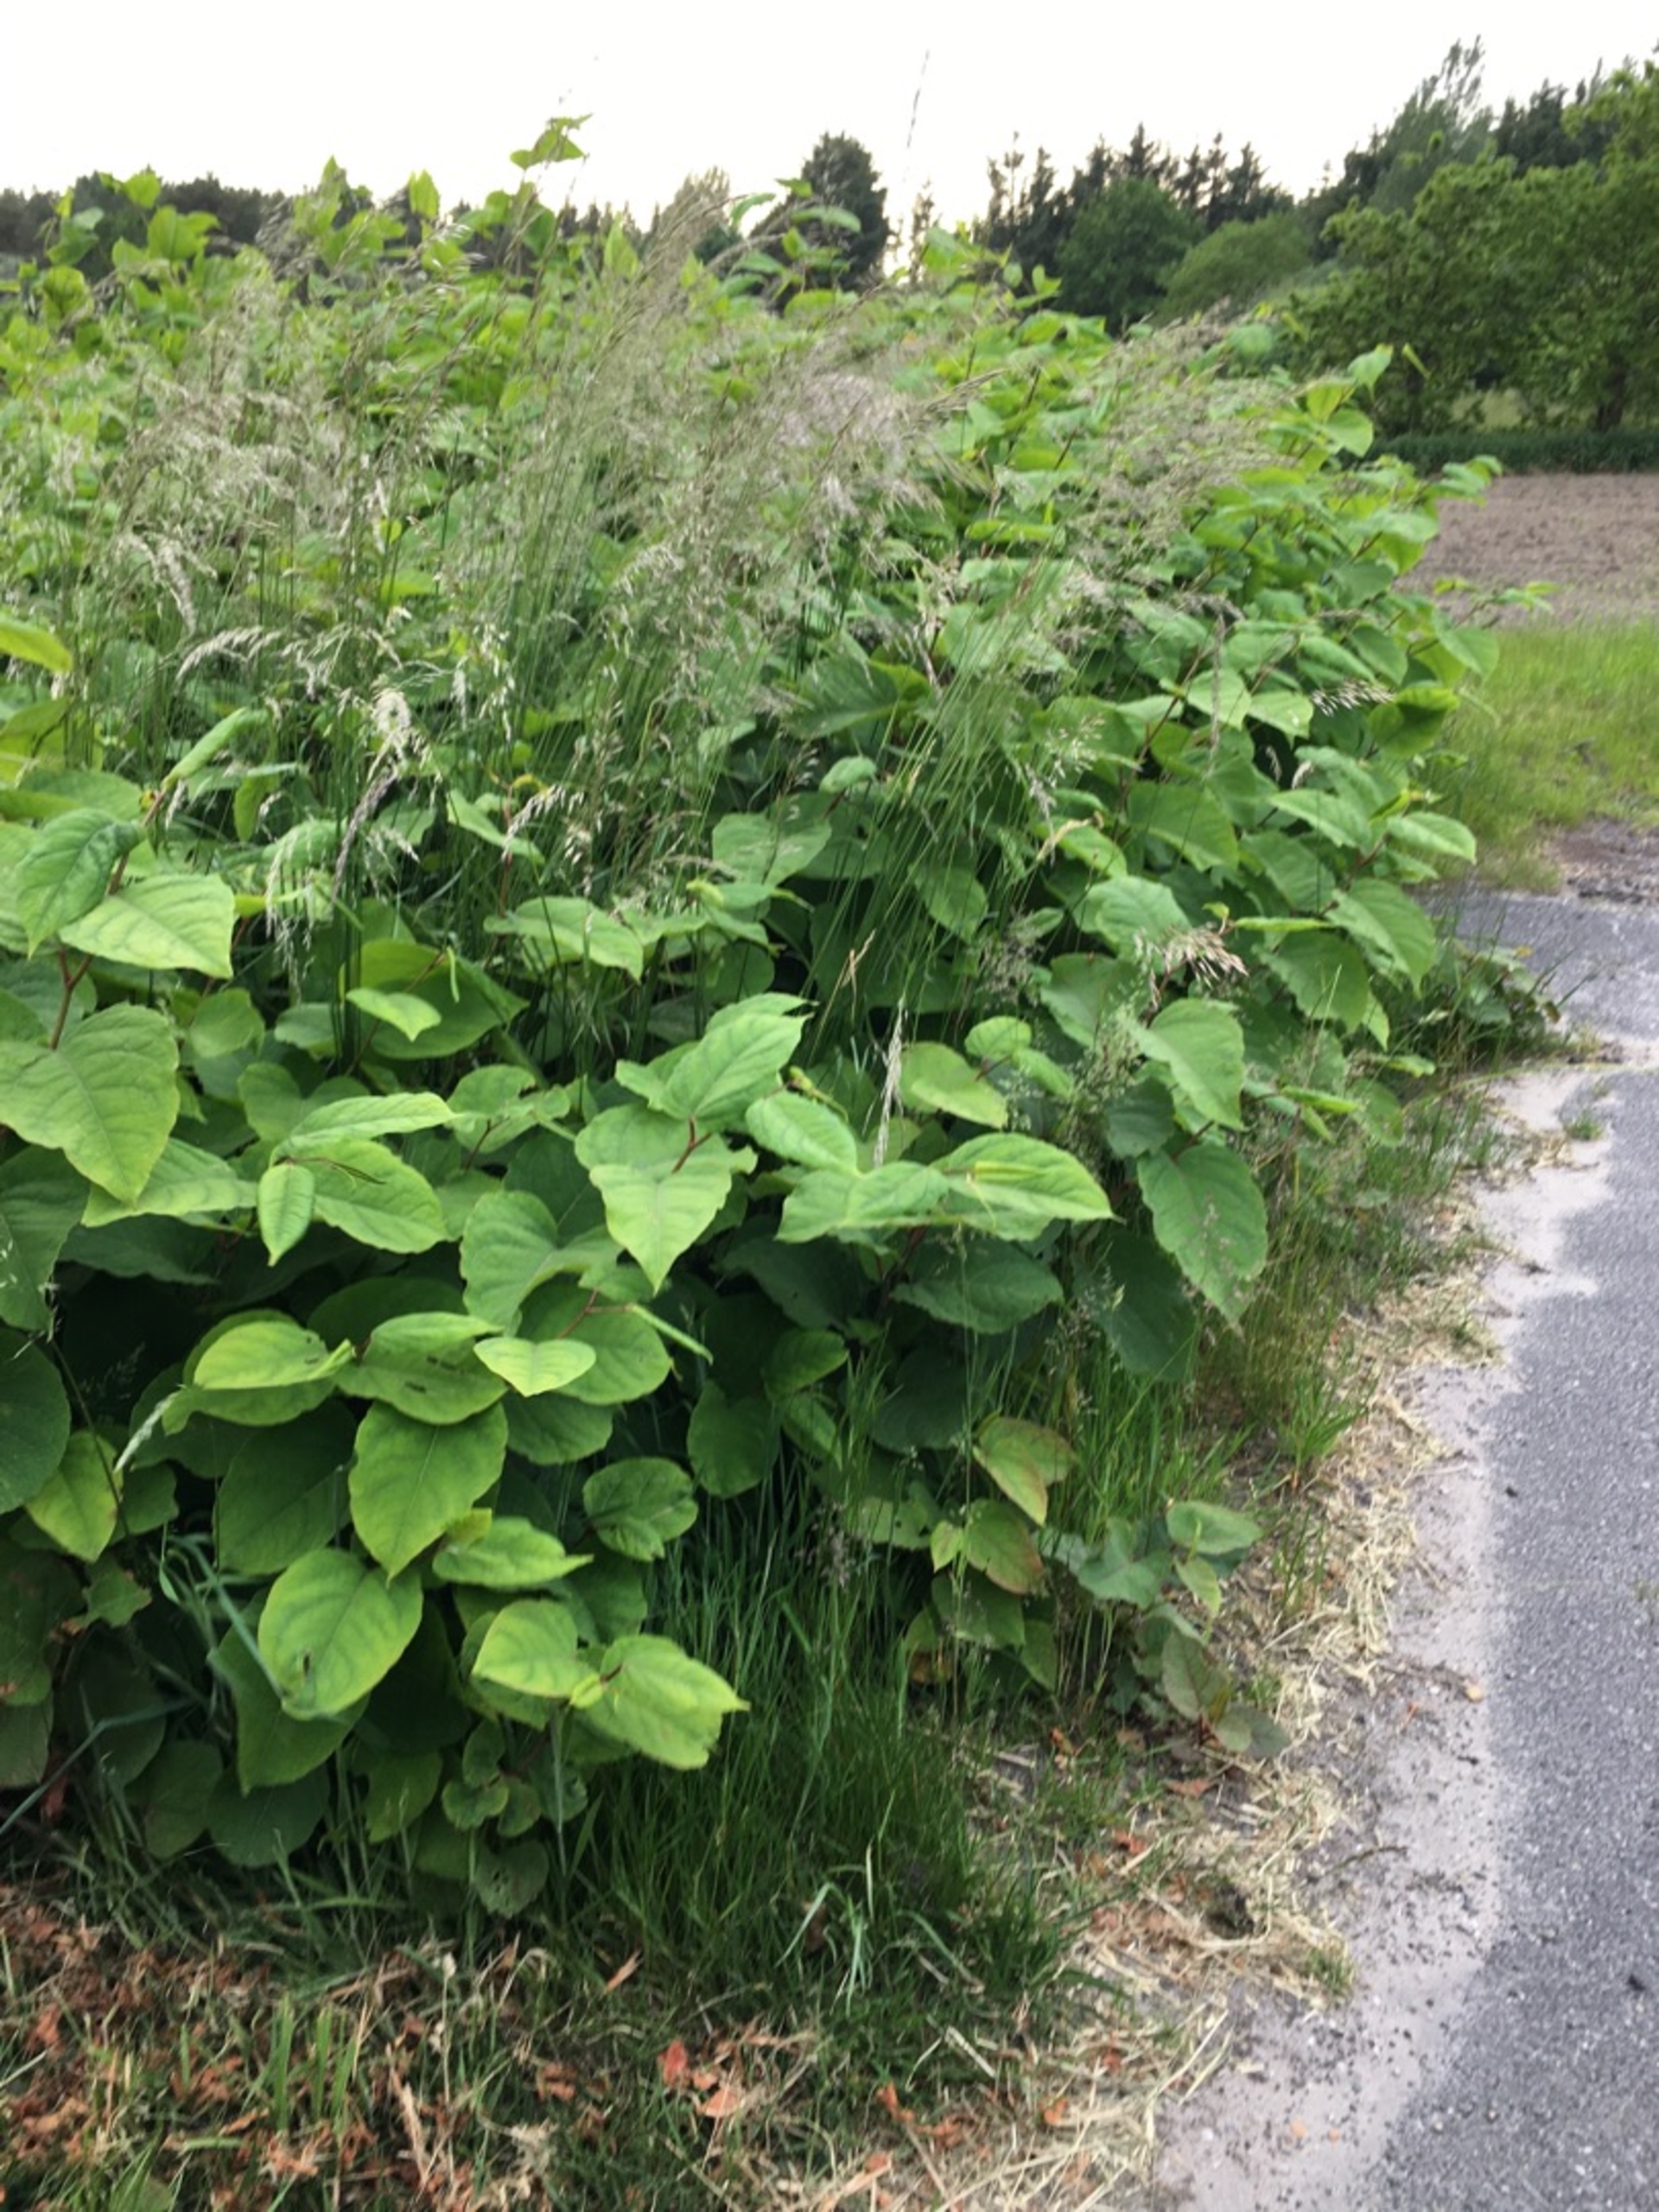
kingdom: Plantae
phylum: Tracheophyta
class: Magnoliopsida
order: Caryophyllales
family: Polygonaceae
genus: Reynoutria
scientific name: Reynoutria japonica
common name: Japan-pileurt
